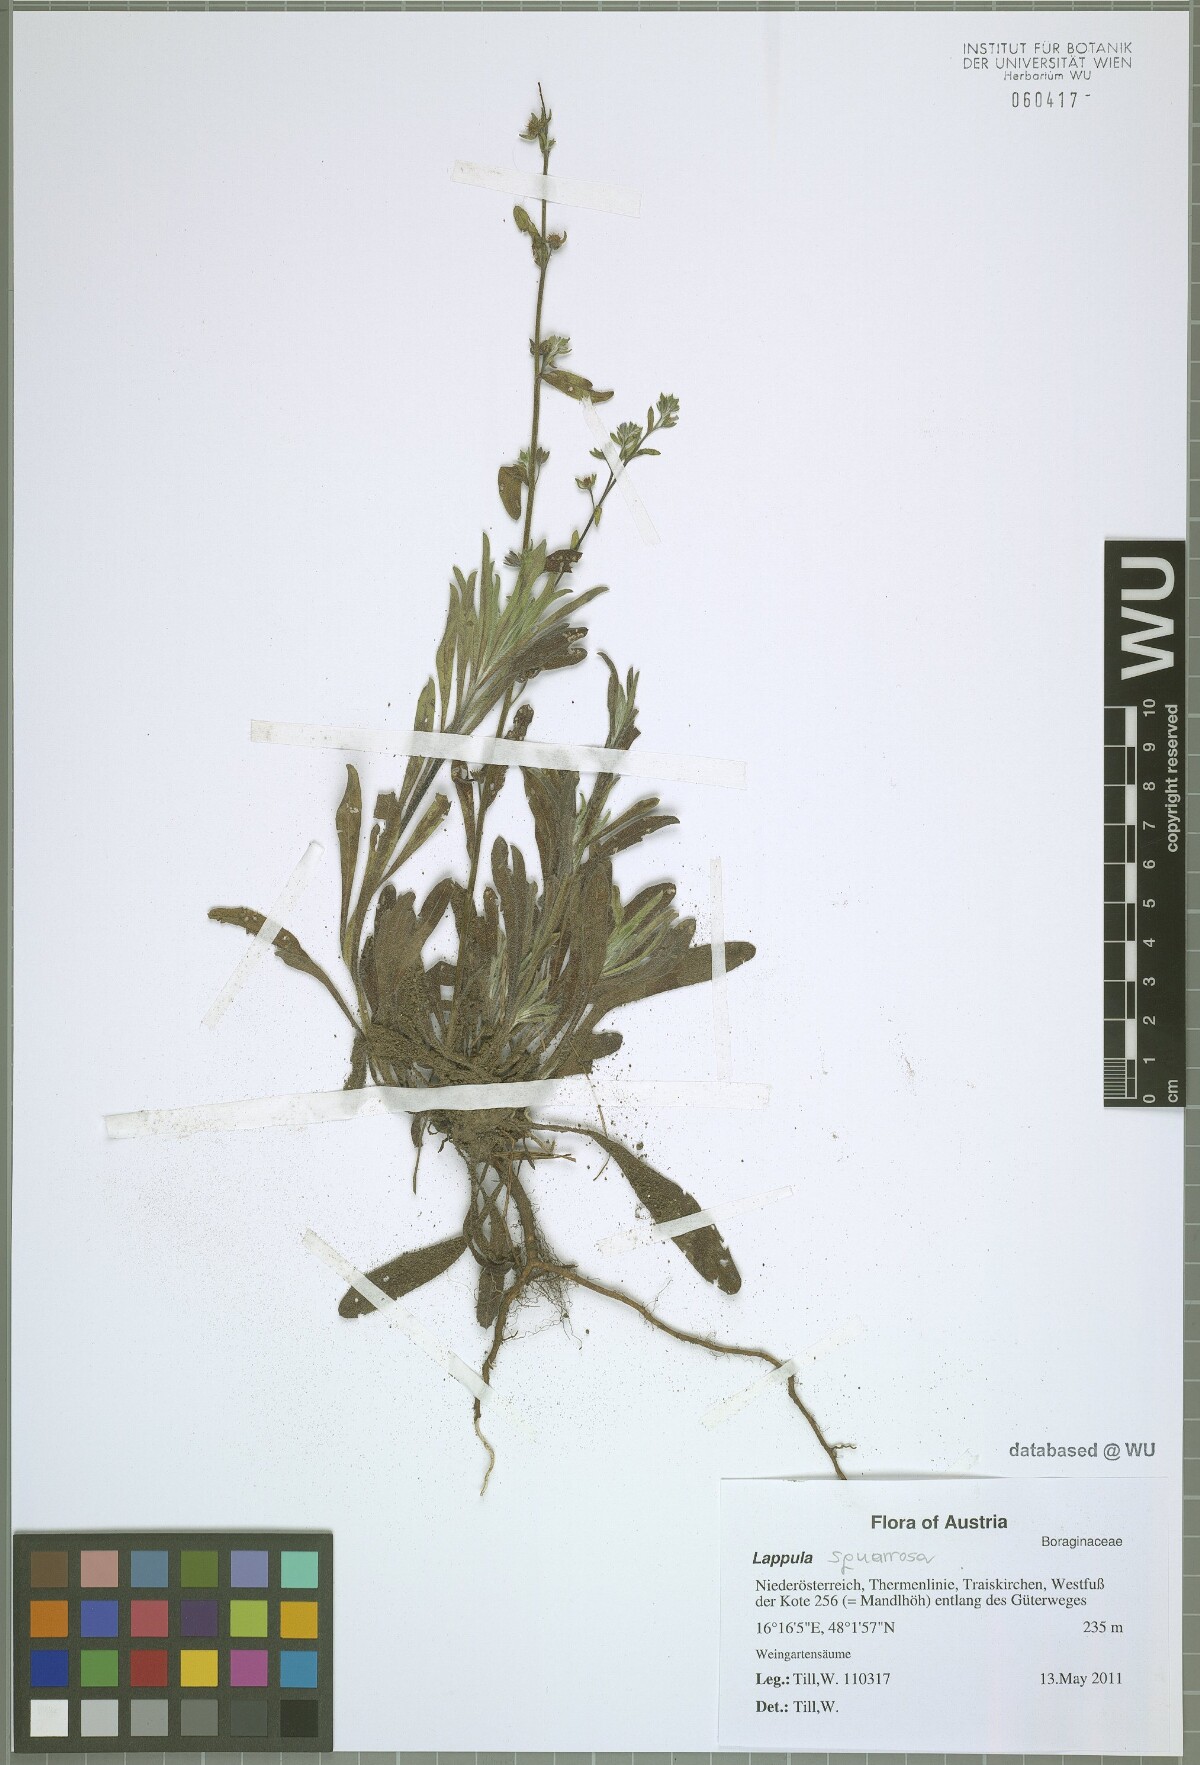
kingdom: Plantae
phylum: Tracheophyta
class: Magnoliopsida
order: Boraginales
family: Boraginaceae
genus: Lappula
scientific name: Lappula squarrosa
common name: European stickseed
